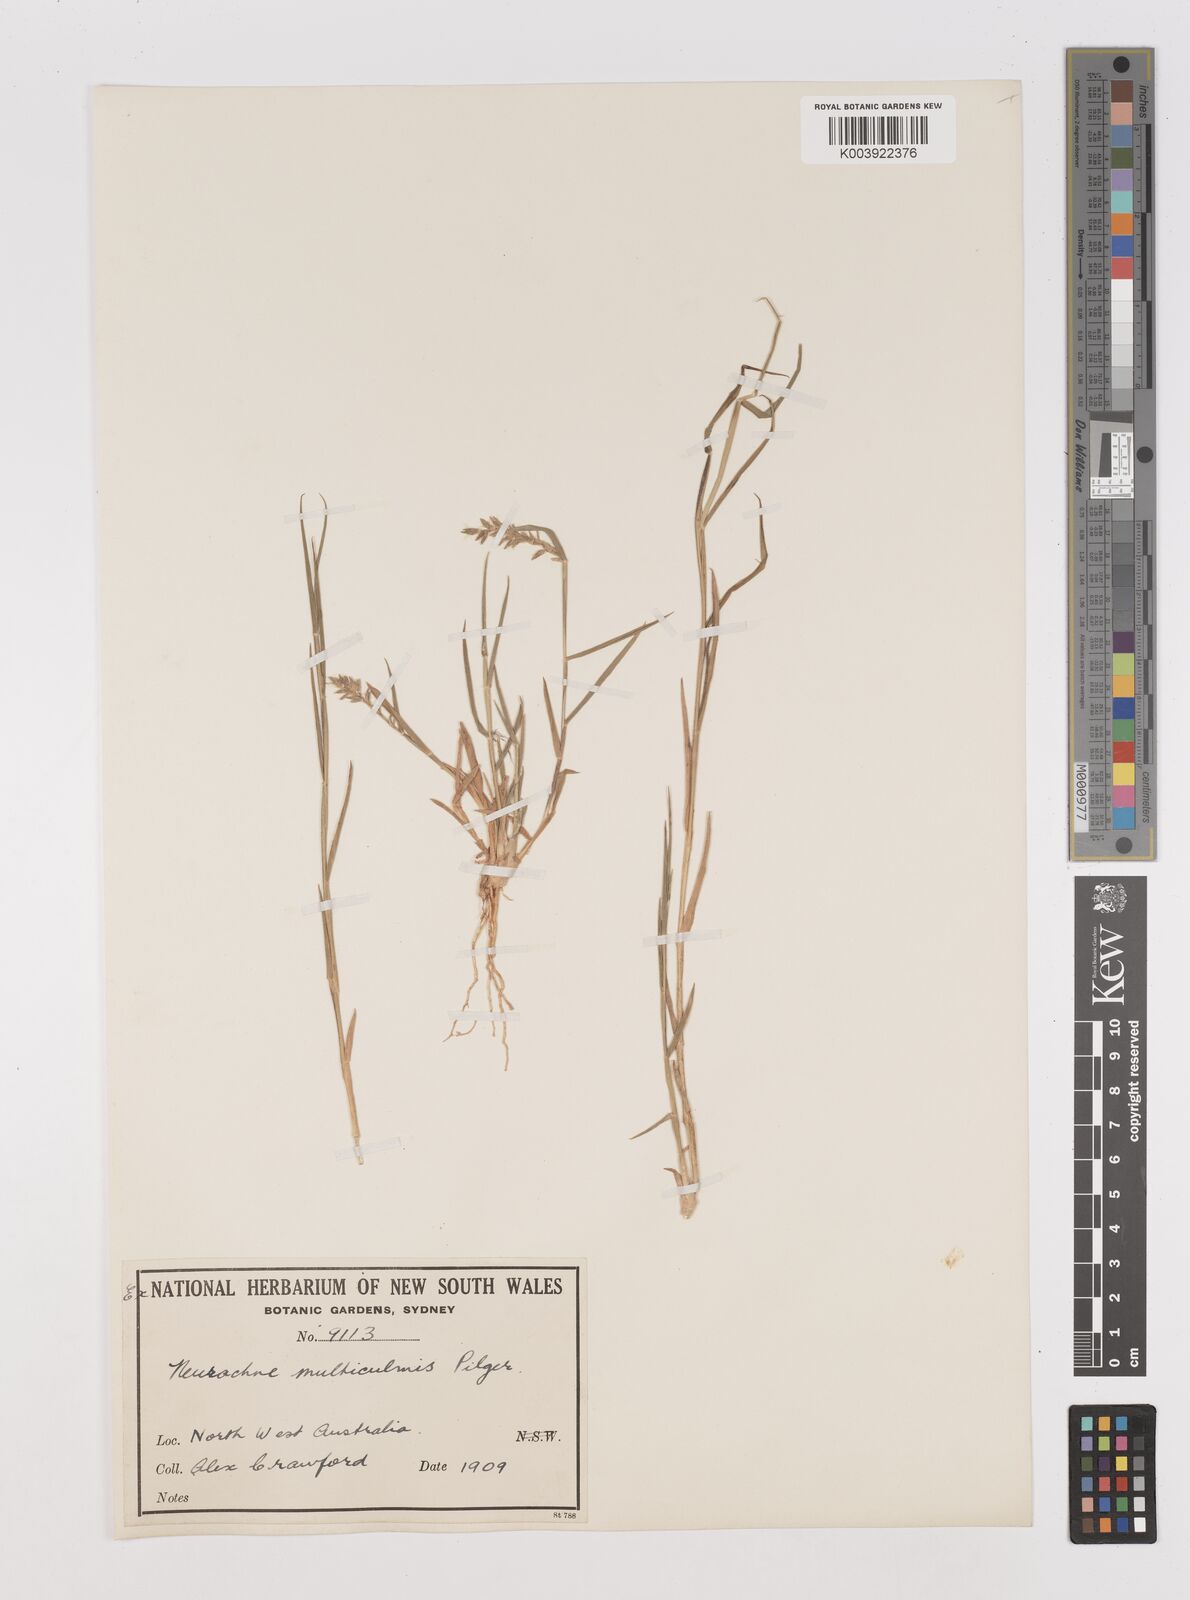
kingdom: Plantae
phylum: Tracheophyta
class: Liliopsida
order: Poales
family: Poaceae
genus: Thyridolepis
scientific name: Thyridolepis mitchelliana
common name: Rock tassel grass
